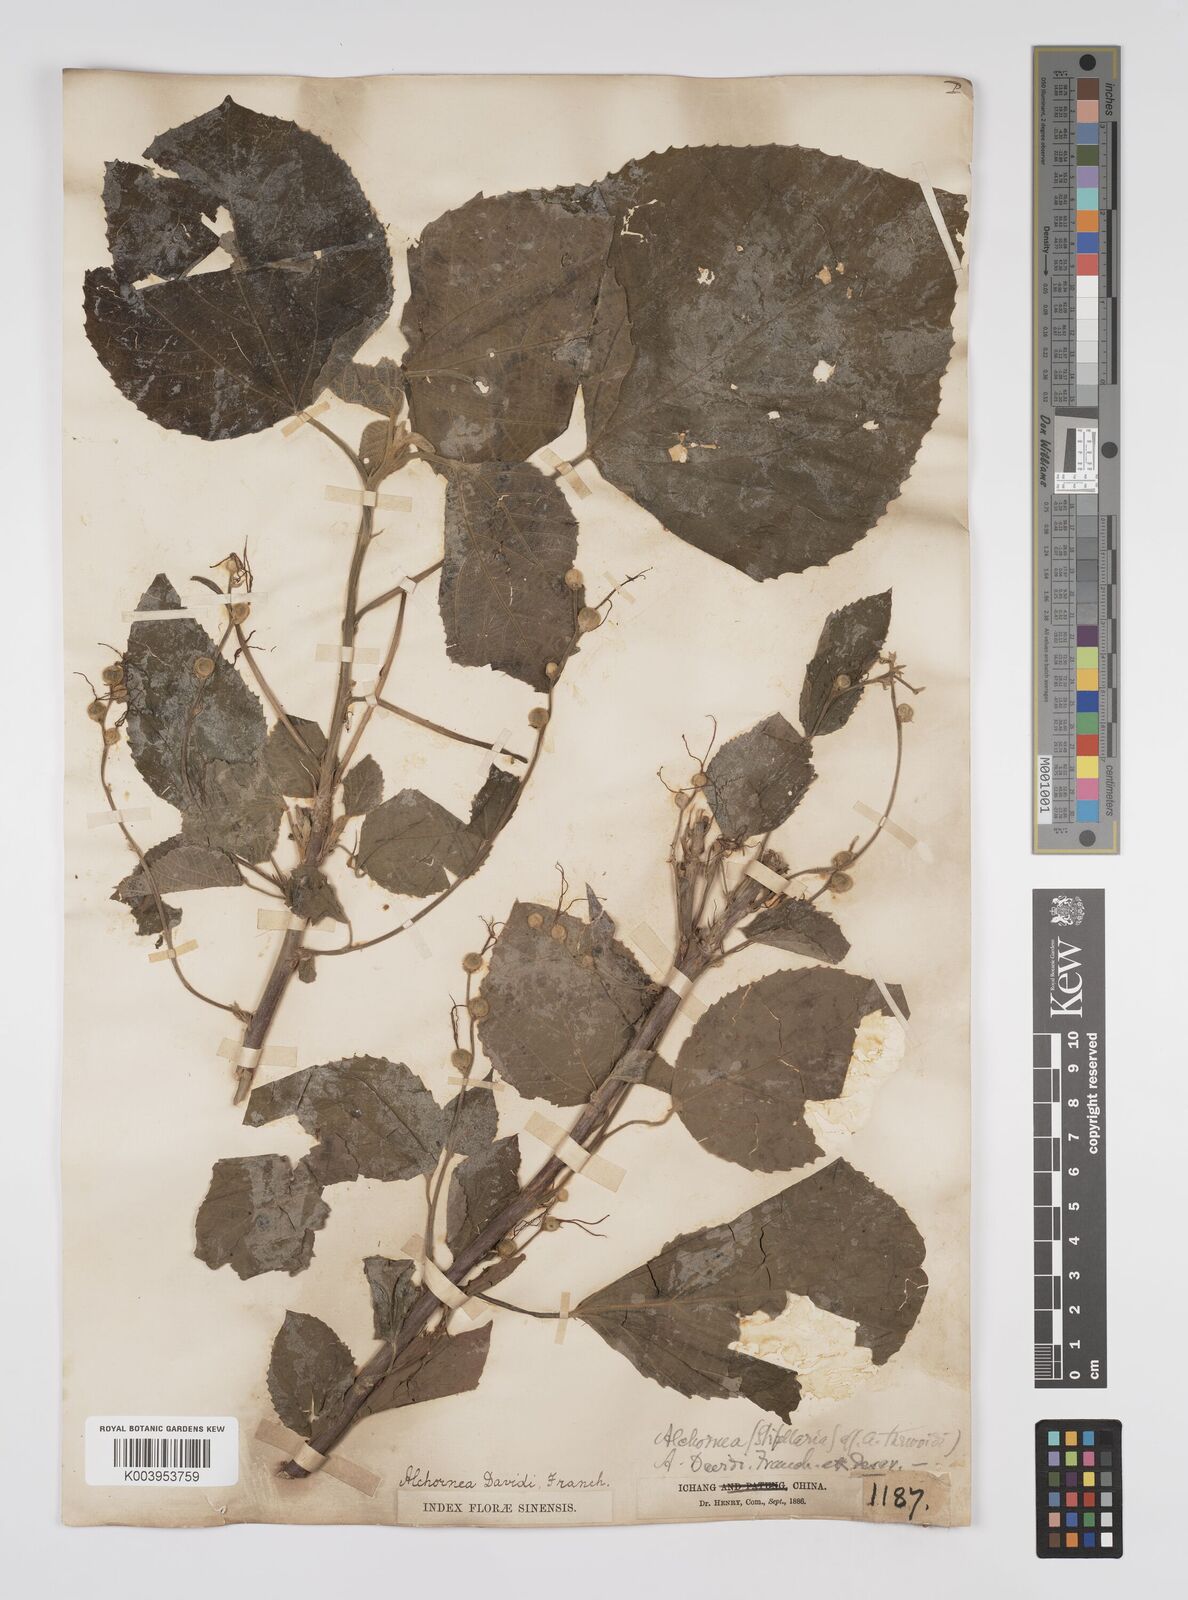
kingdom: Plantae
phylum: Tracheophyta
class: Magnoliopsida
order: Malpighiales
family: Euphorbiaceae
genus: Alchornea
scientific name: Alchornea davidii
